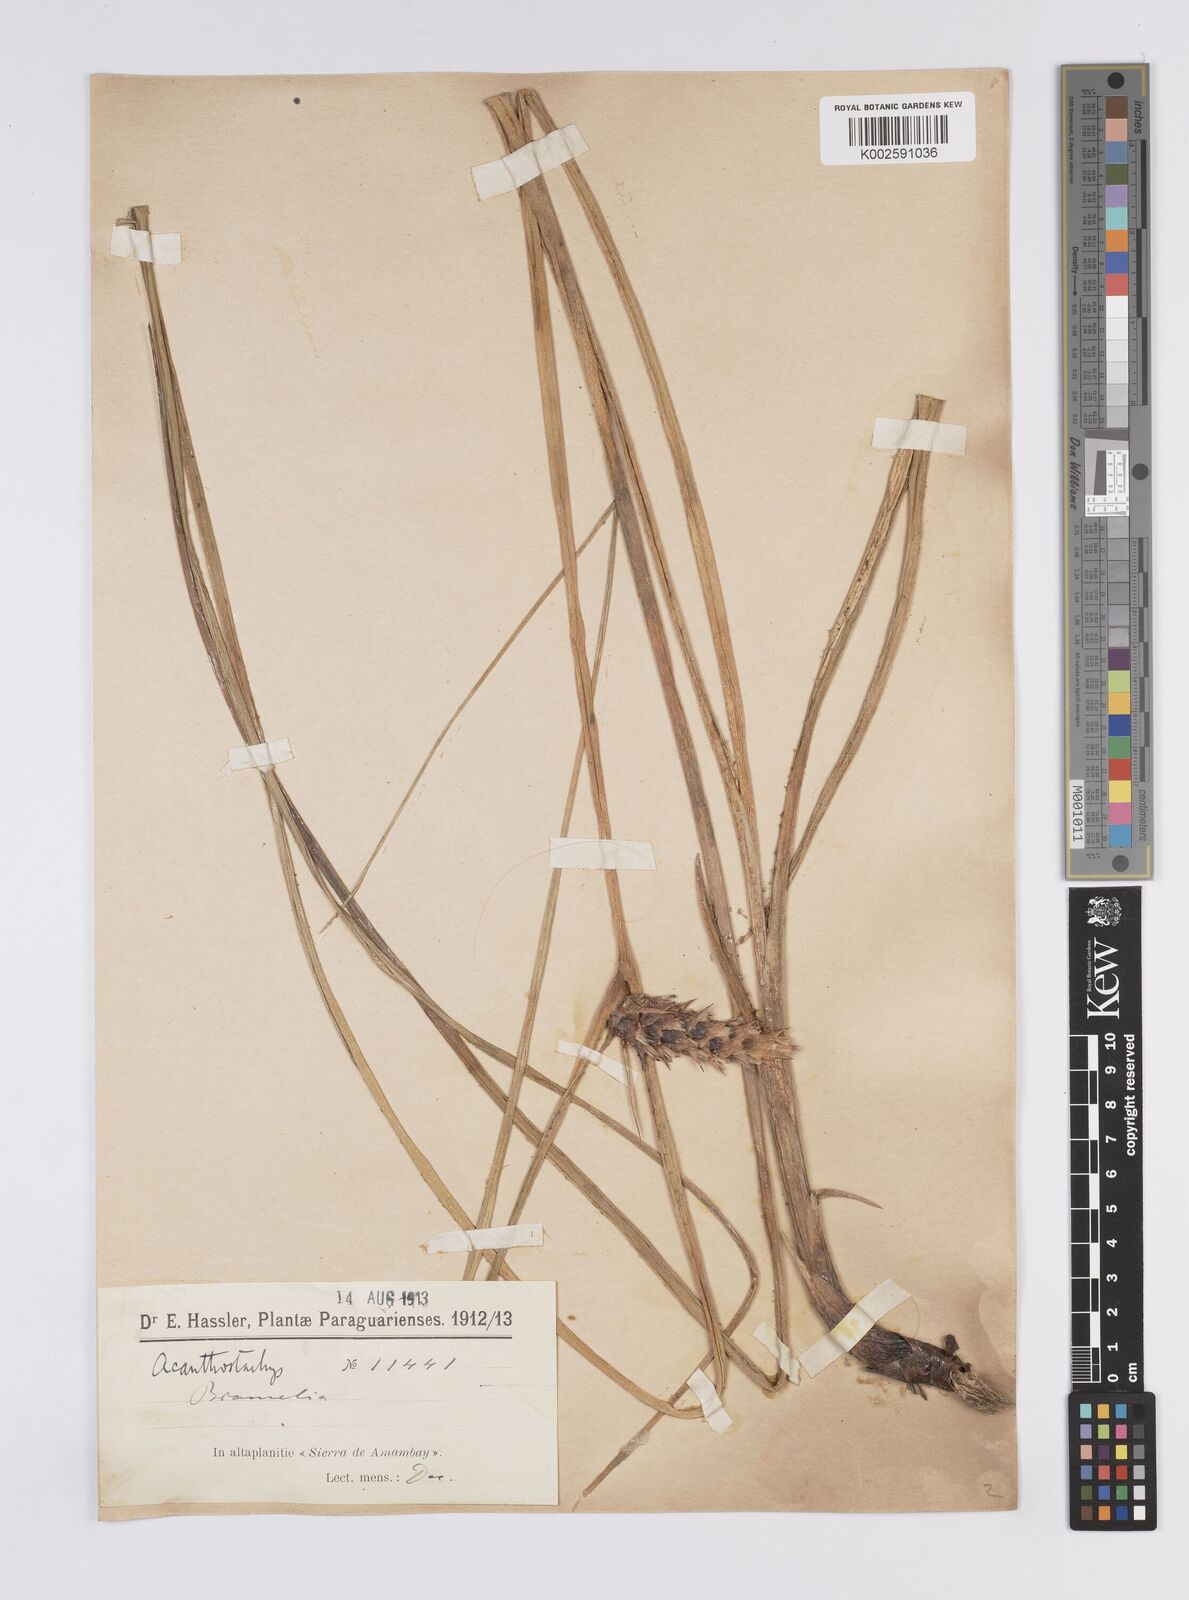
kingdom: Plantae
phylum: Tracheophyta
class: Liliopsida
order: Poales
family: Bromeliaceae
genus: Acanthostachys
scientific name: Acanthostachys strobilacea
